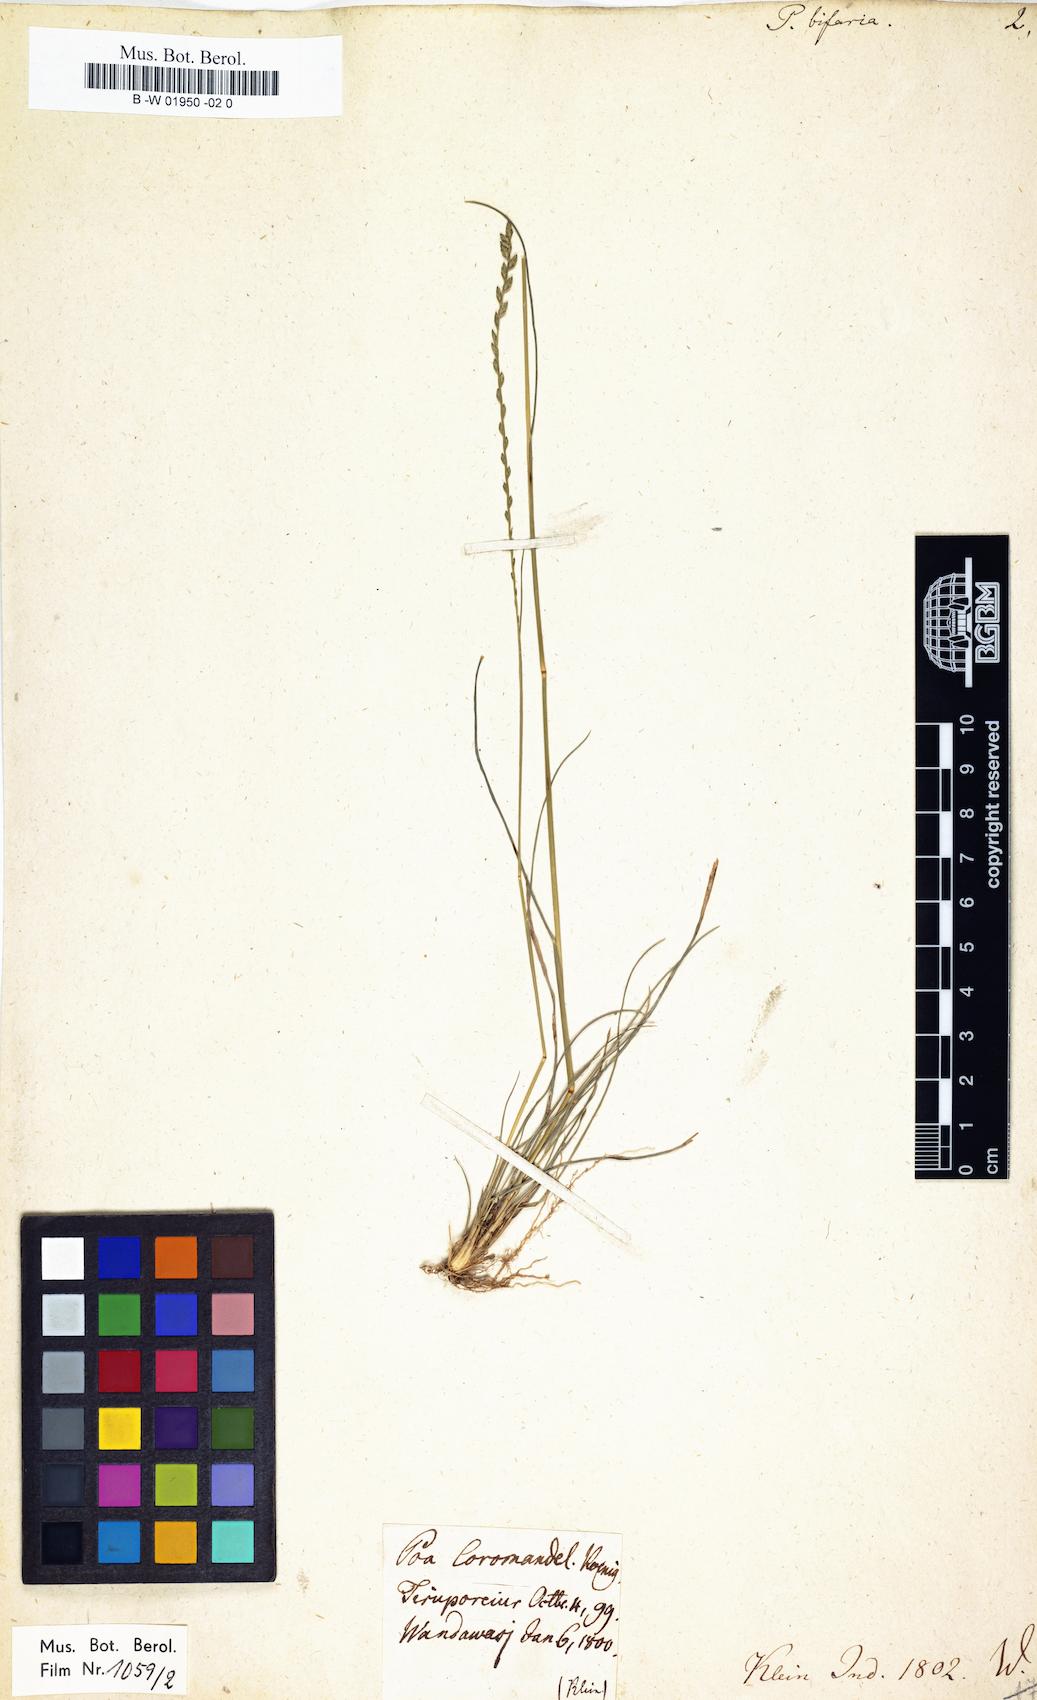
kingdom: Plantae
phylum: Tracheophyta
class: Liliopsida
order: Poales
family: Poaceae
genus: Eragrostiella
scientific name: Eragrostiella bifaria
